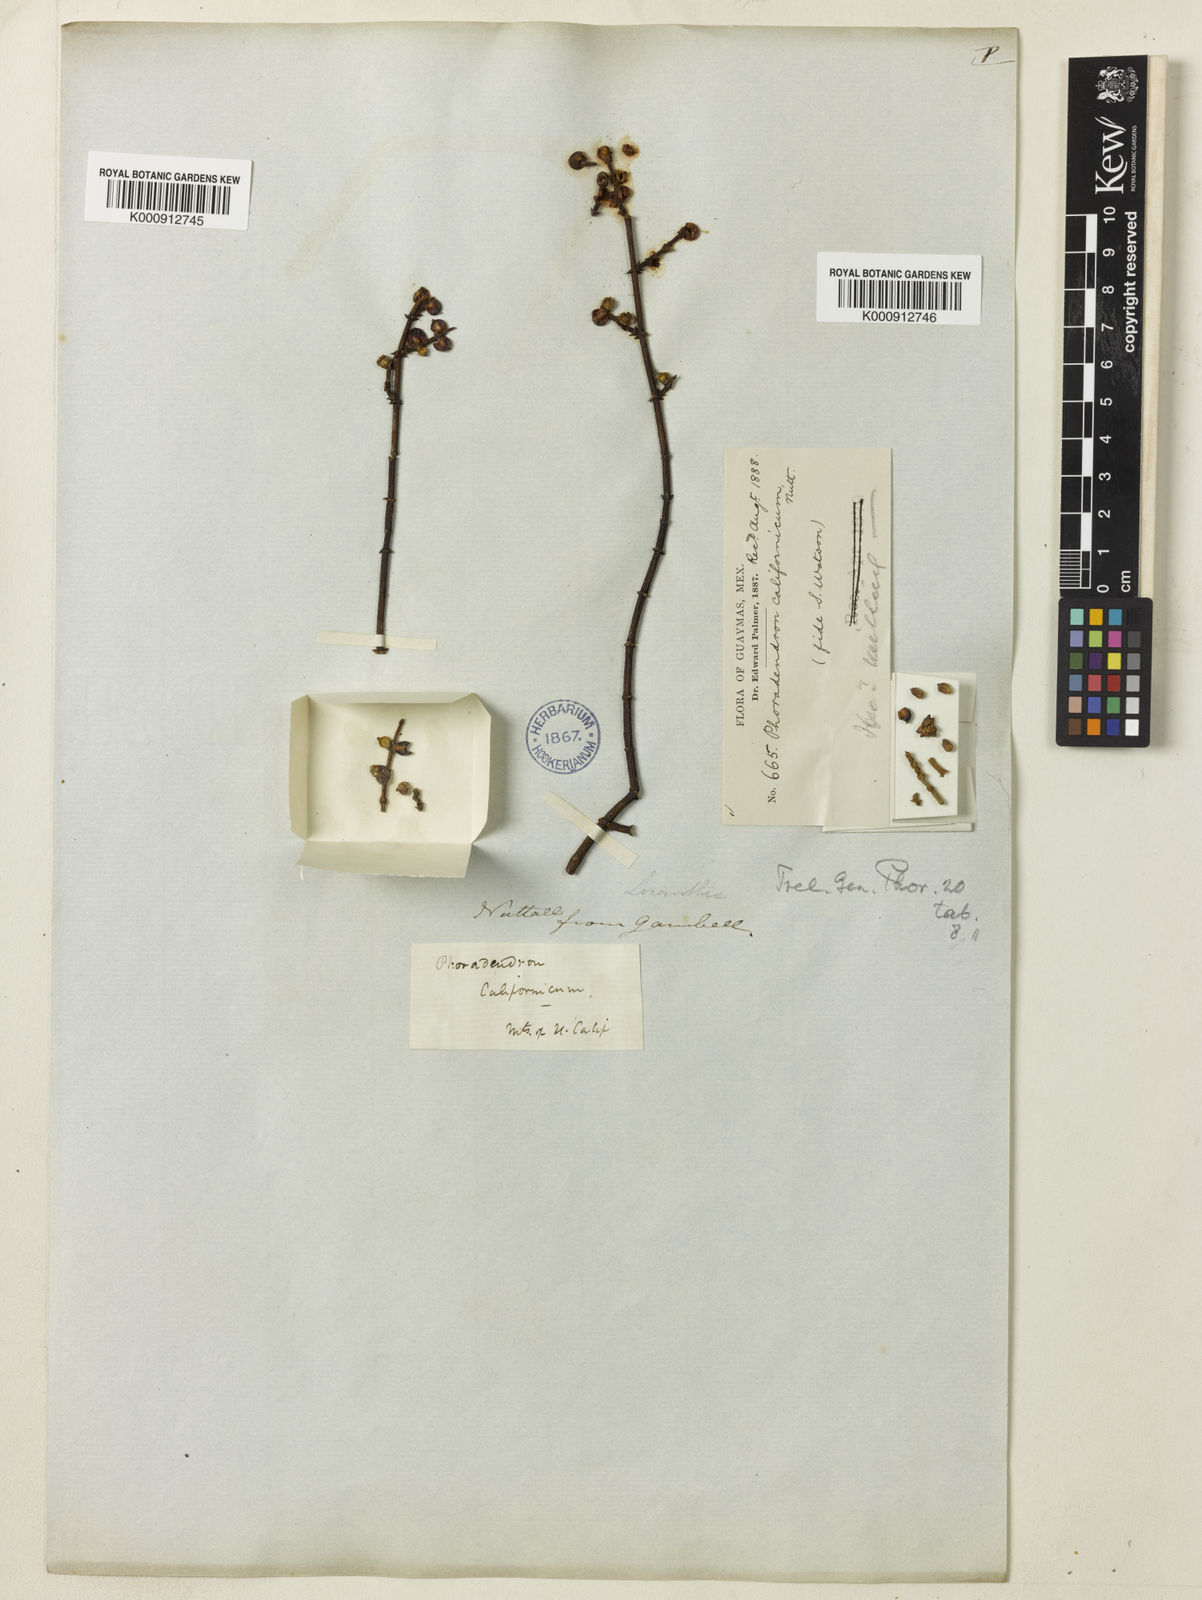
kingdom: Plantae
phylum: Tracheophyta
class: Magnoliopsida
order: Santalales
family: Viscaceae
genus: Phoradendron
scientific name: Phoradendron californicum
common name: Acacia mistletoe
